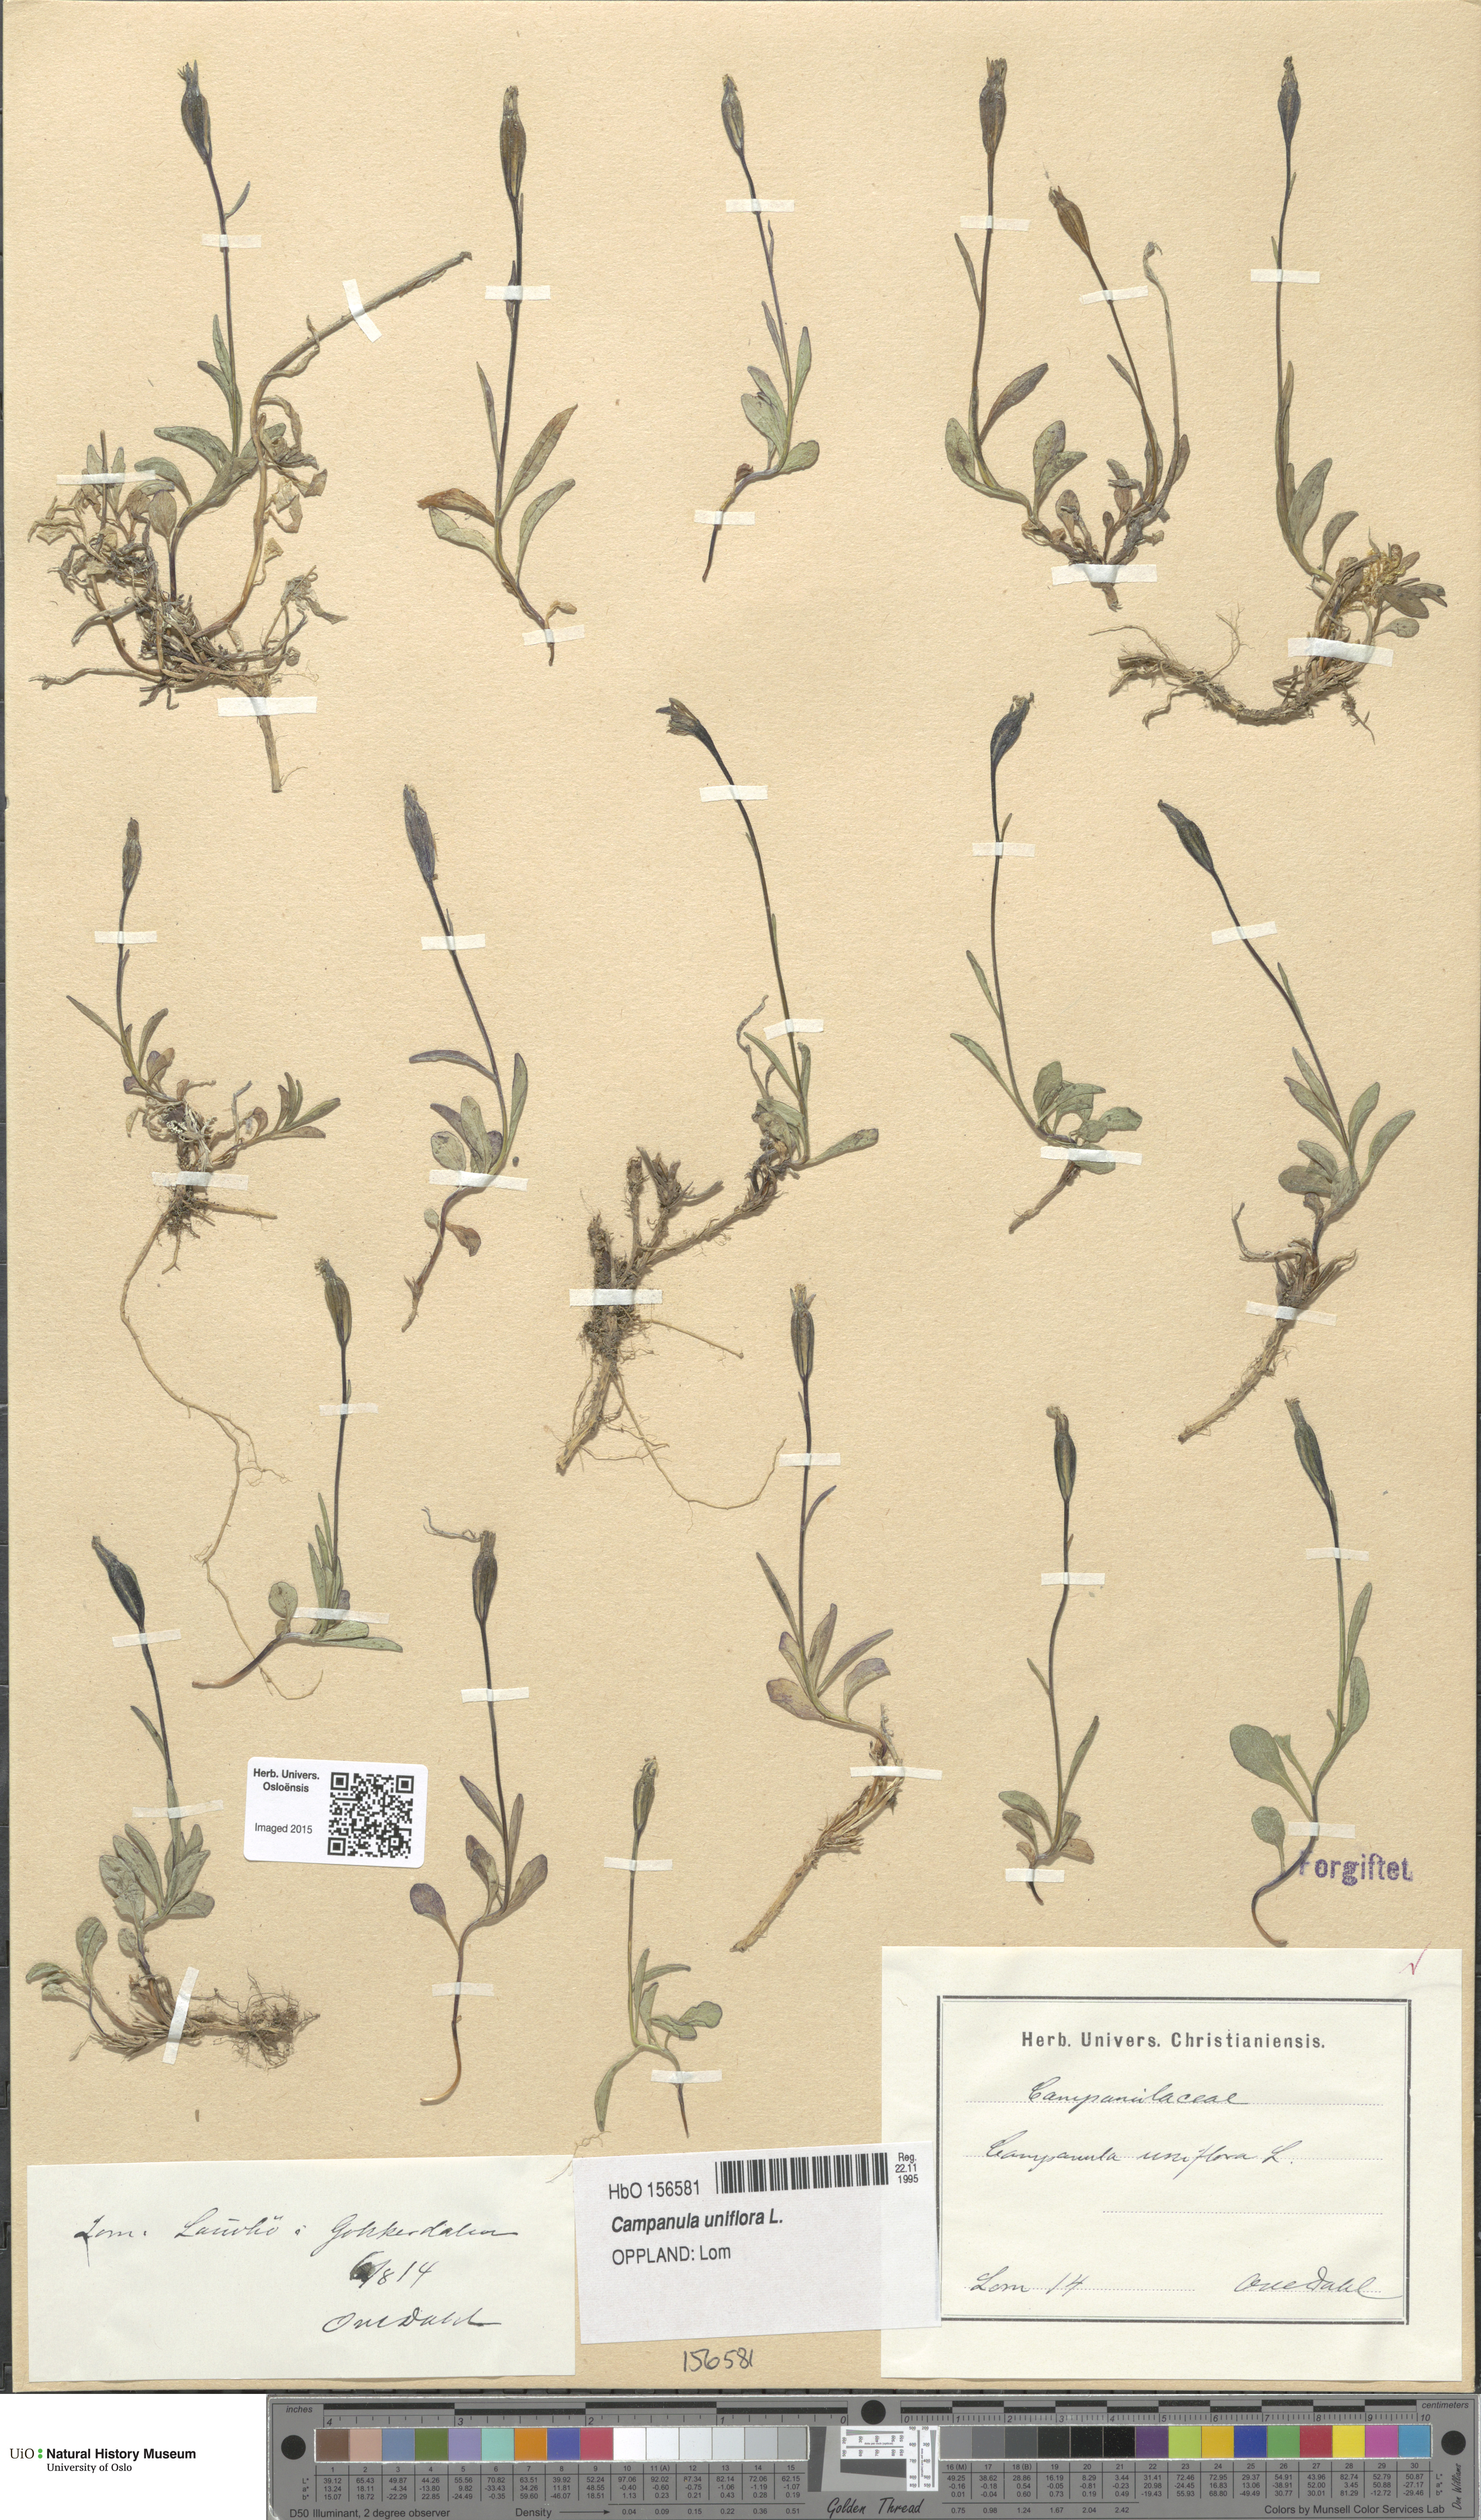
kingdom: Plantae
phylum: Tracheophyta
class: Magnoliopsida
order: Asterales
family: Campanulaceae
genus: Melanocalyx
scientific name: Melanocalyx uniflora
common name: Alpine harebell
